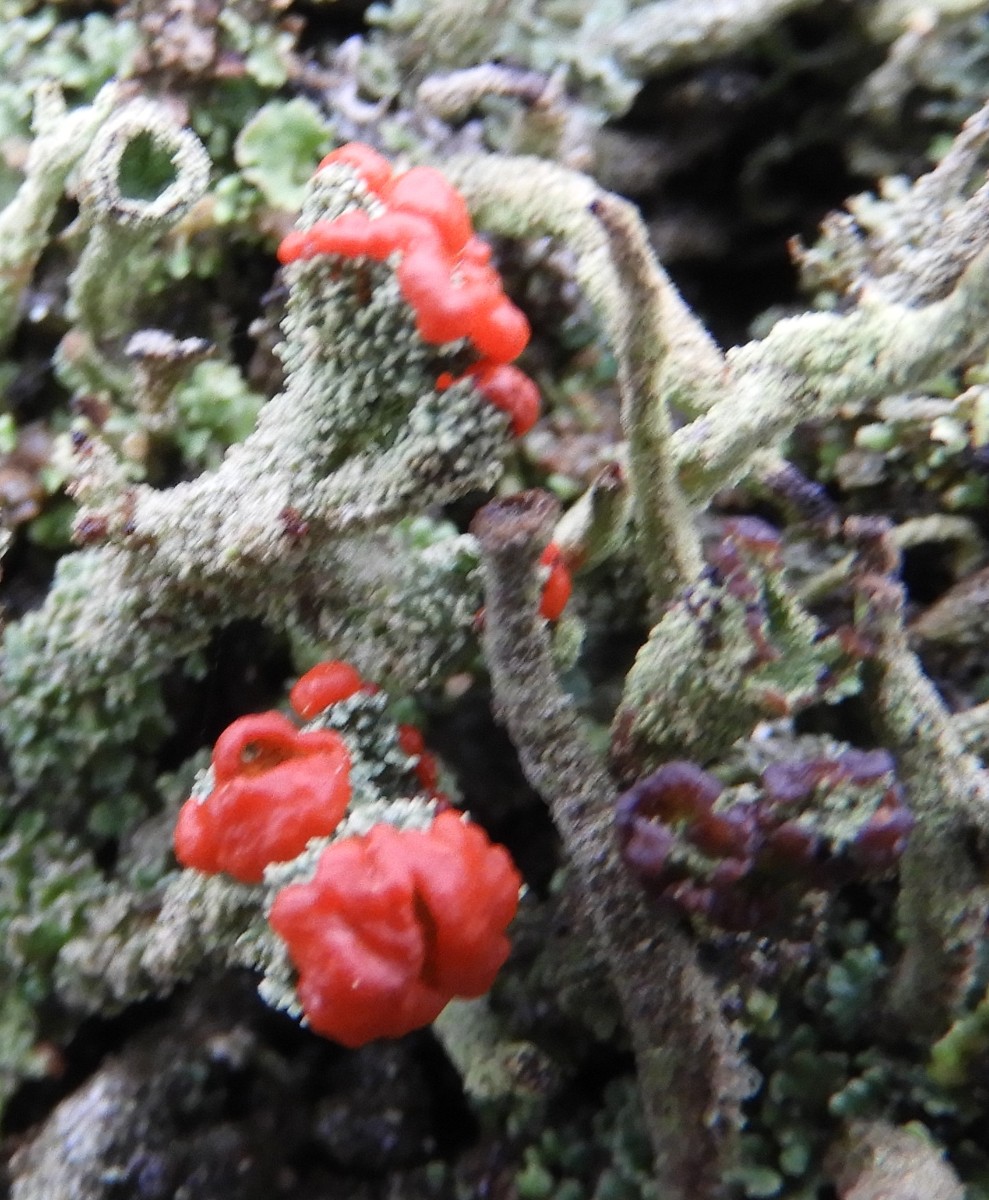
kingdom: Fungi
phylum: Ascomycota
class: Lecanoromycetes
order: Lecanorales
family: Cladoniaceae
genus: Cladonia
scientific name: Cladonia floerkeana
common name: lakrød bægerlav
